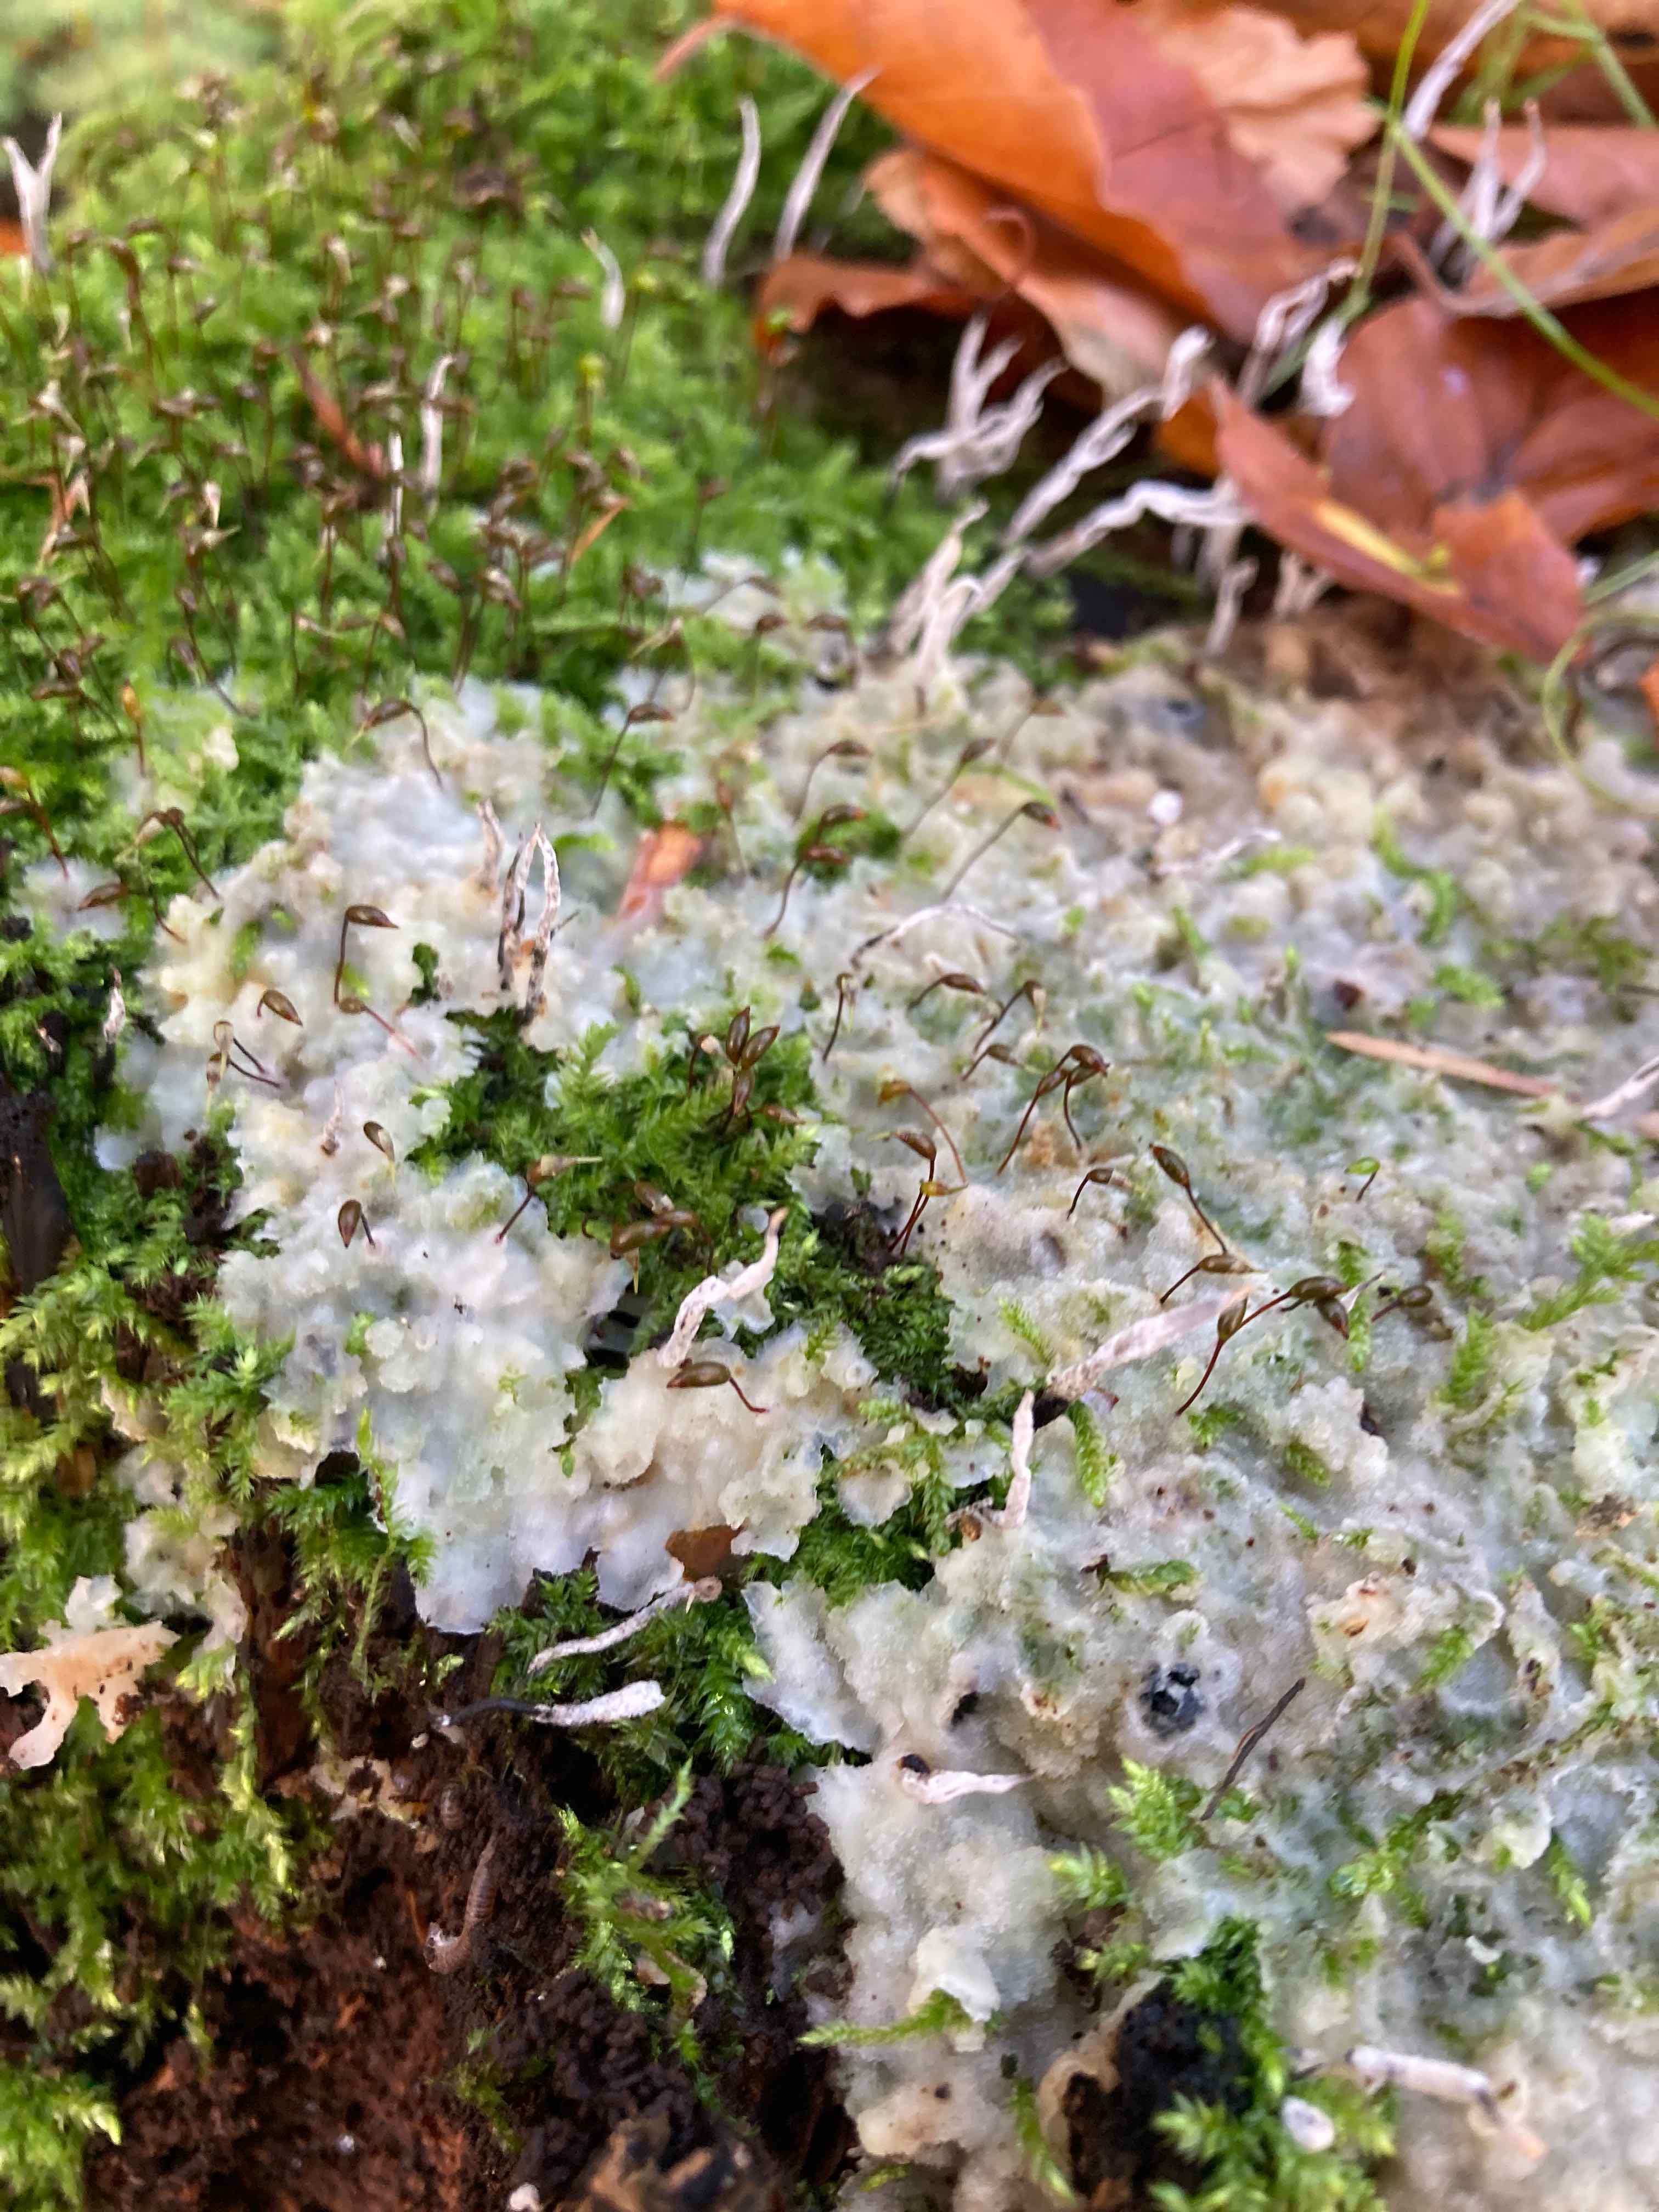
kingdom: Fungi
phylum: Basidiomycota
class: Agaricomycetes
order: Polyporales
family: Meruliaceae
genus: Physisporinus
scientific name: Physisporinus vitreus
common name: mastesvamp
